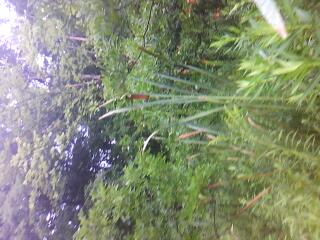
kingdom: Plantae
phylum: Tracheophyta
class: Liliopsida
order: Poales
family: Typhaceae
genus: Typha
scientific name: Typha latifolia
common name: Broadleaf cattail
